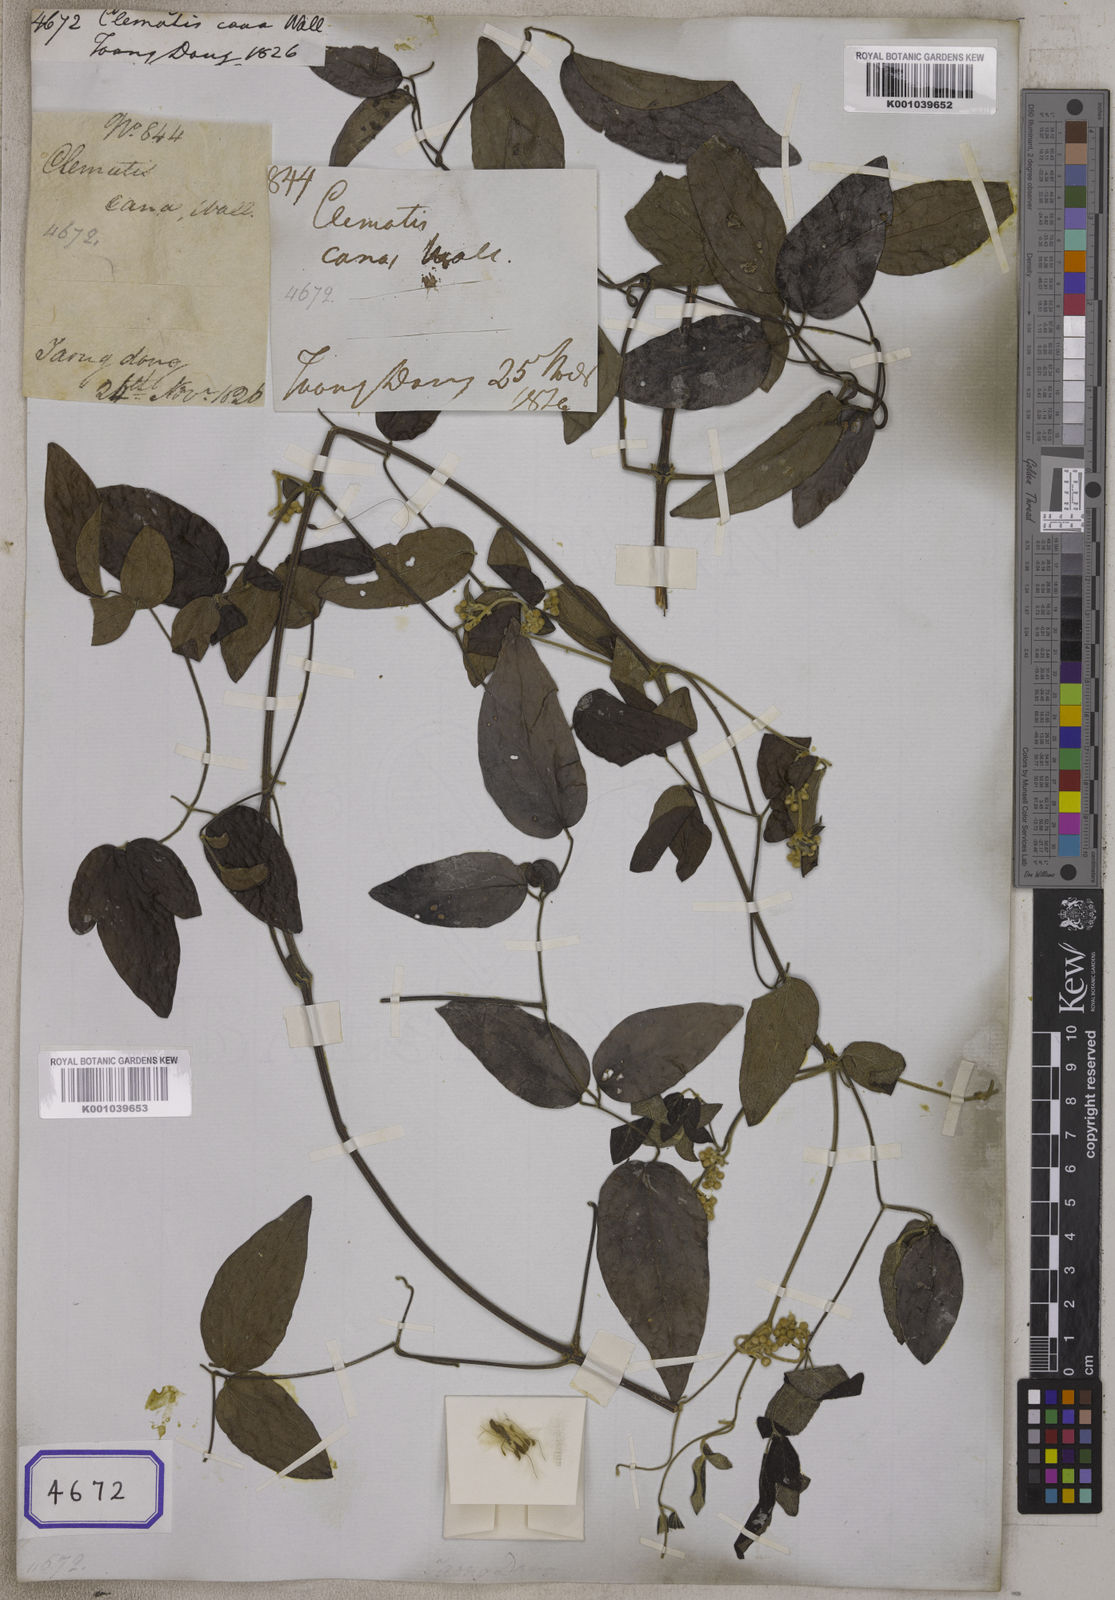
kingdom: Plantae
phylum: Tracheophyta
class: Magnoliopsida
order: Ranunculales
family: Ranunculaceae
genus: Clematis
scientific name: Clematis gouriana
